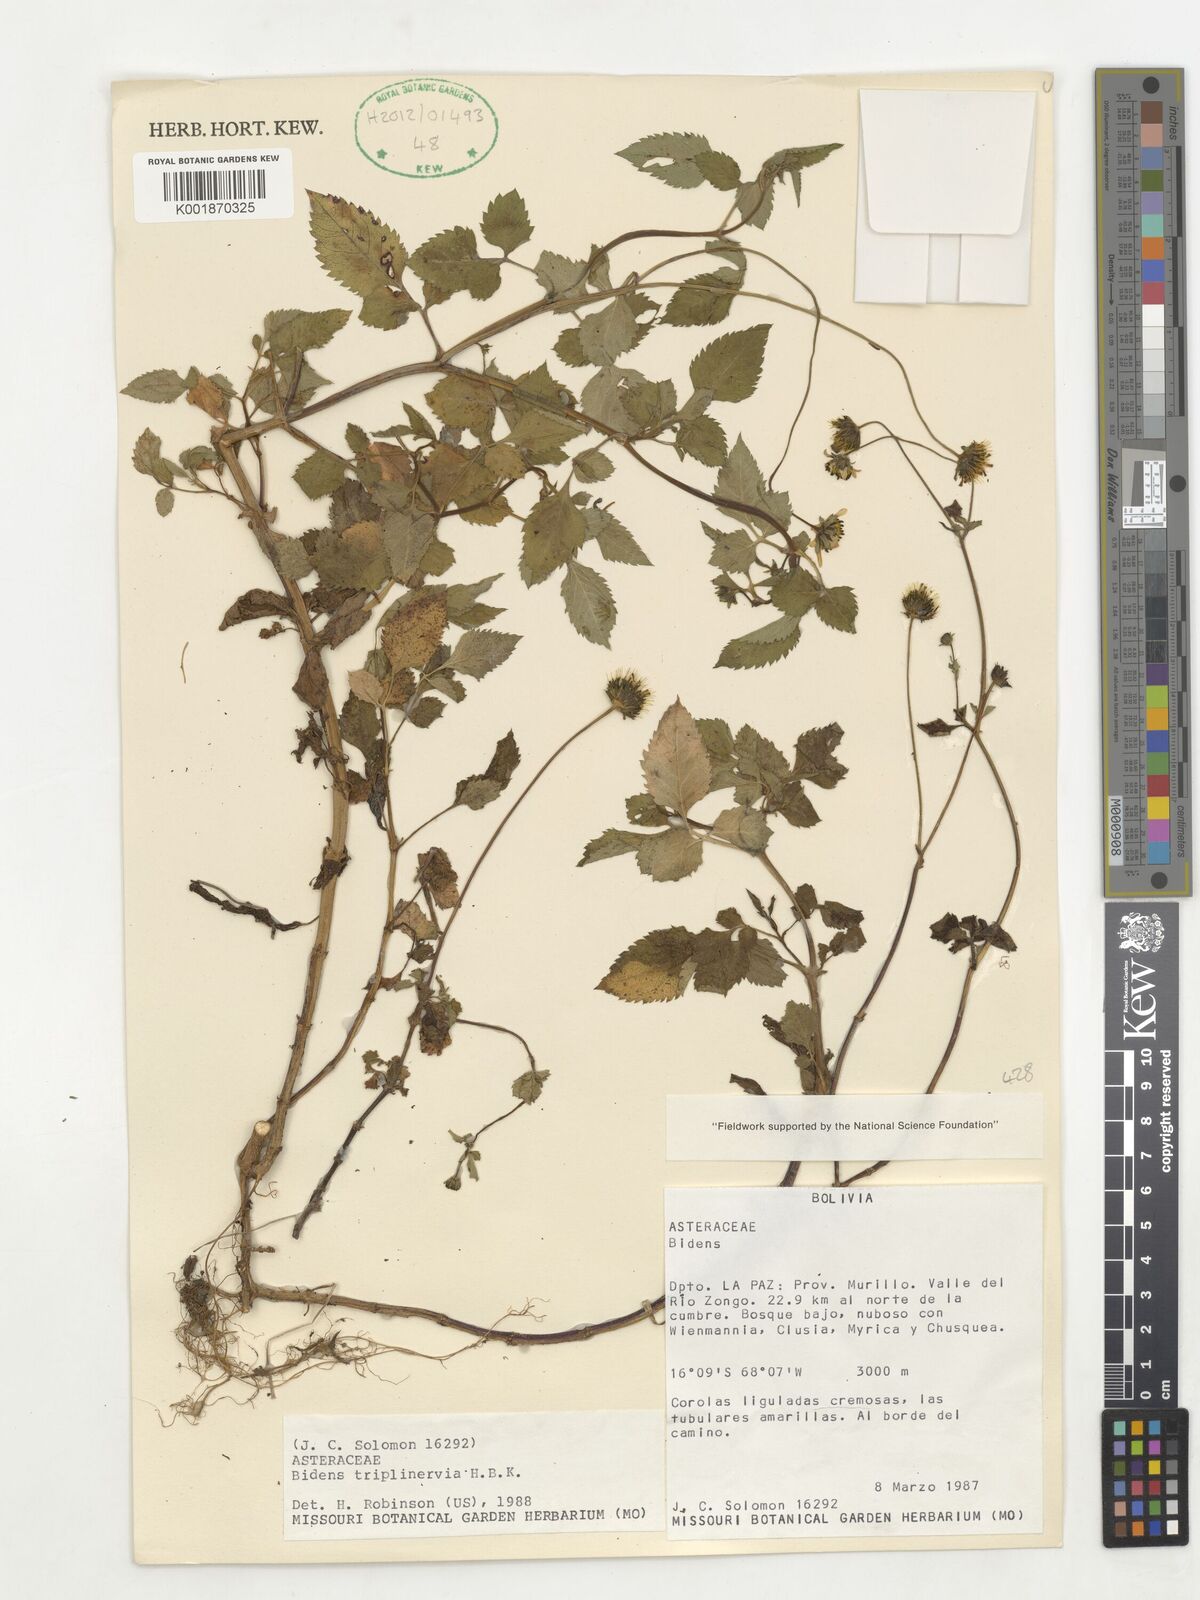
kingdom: Plantae
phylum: Tracheophyta
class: Magnoliopsida
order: Asterales
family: Asteraceae
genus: Bidens
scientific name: Bidens triplinervia
